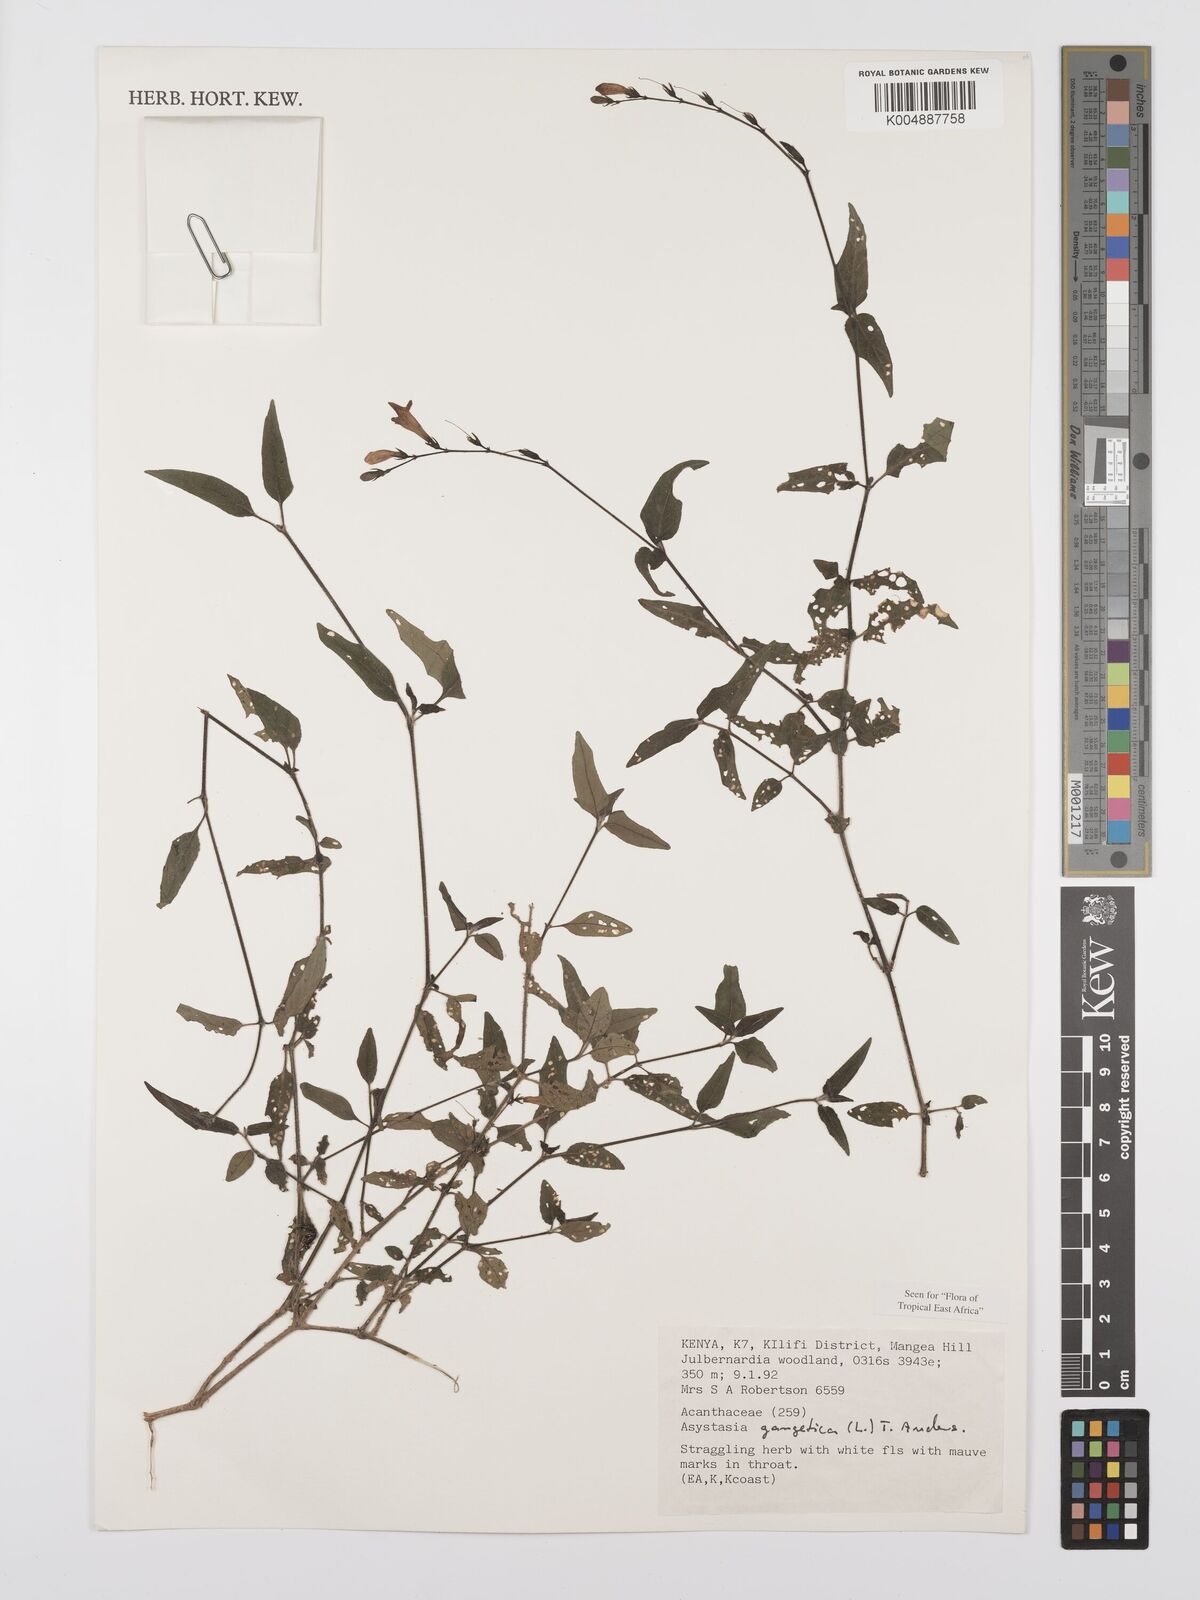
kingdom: Plantae
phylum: Tracheophyta
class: Magnoliopsida
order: Lamiales
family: Acanthaceae
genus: Asystasia
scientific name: Asystasia gangetica
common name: Chinese violet
